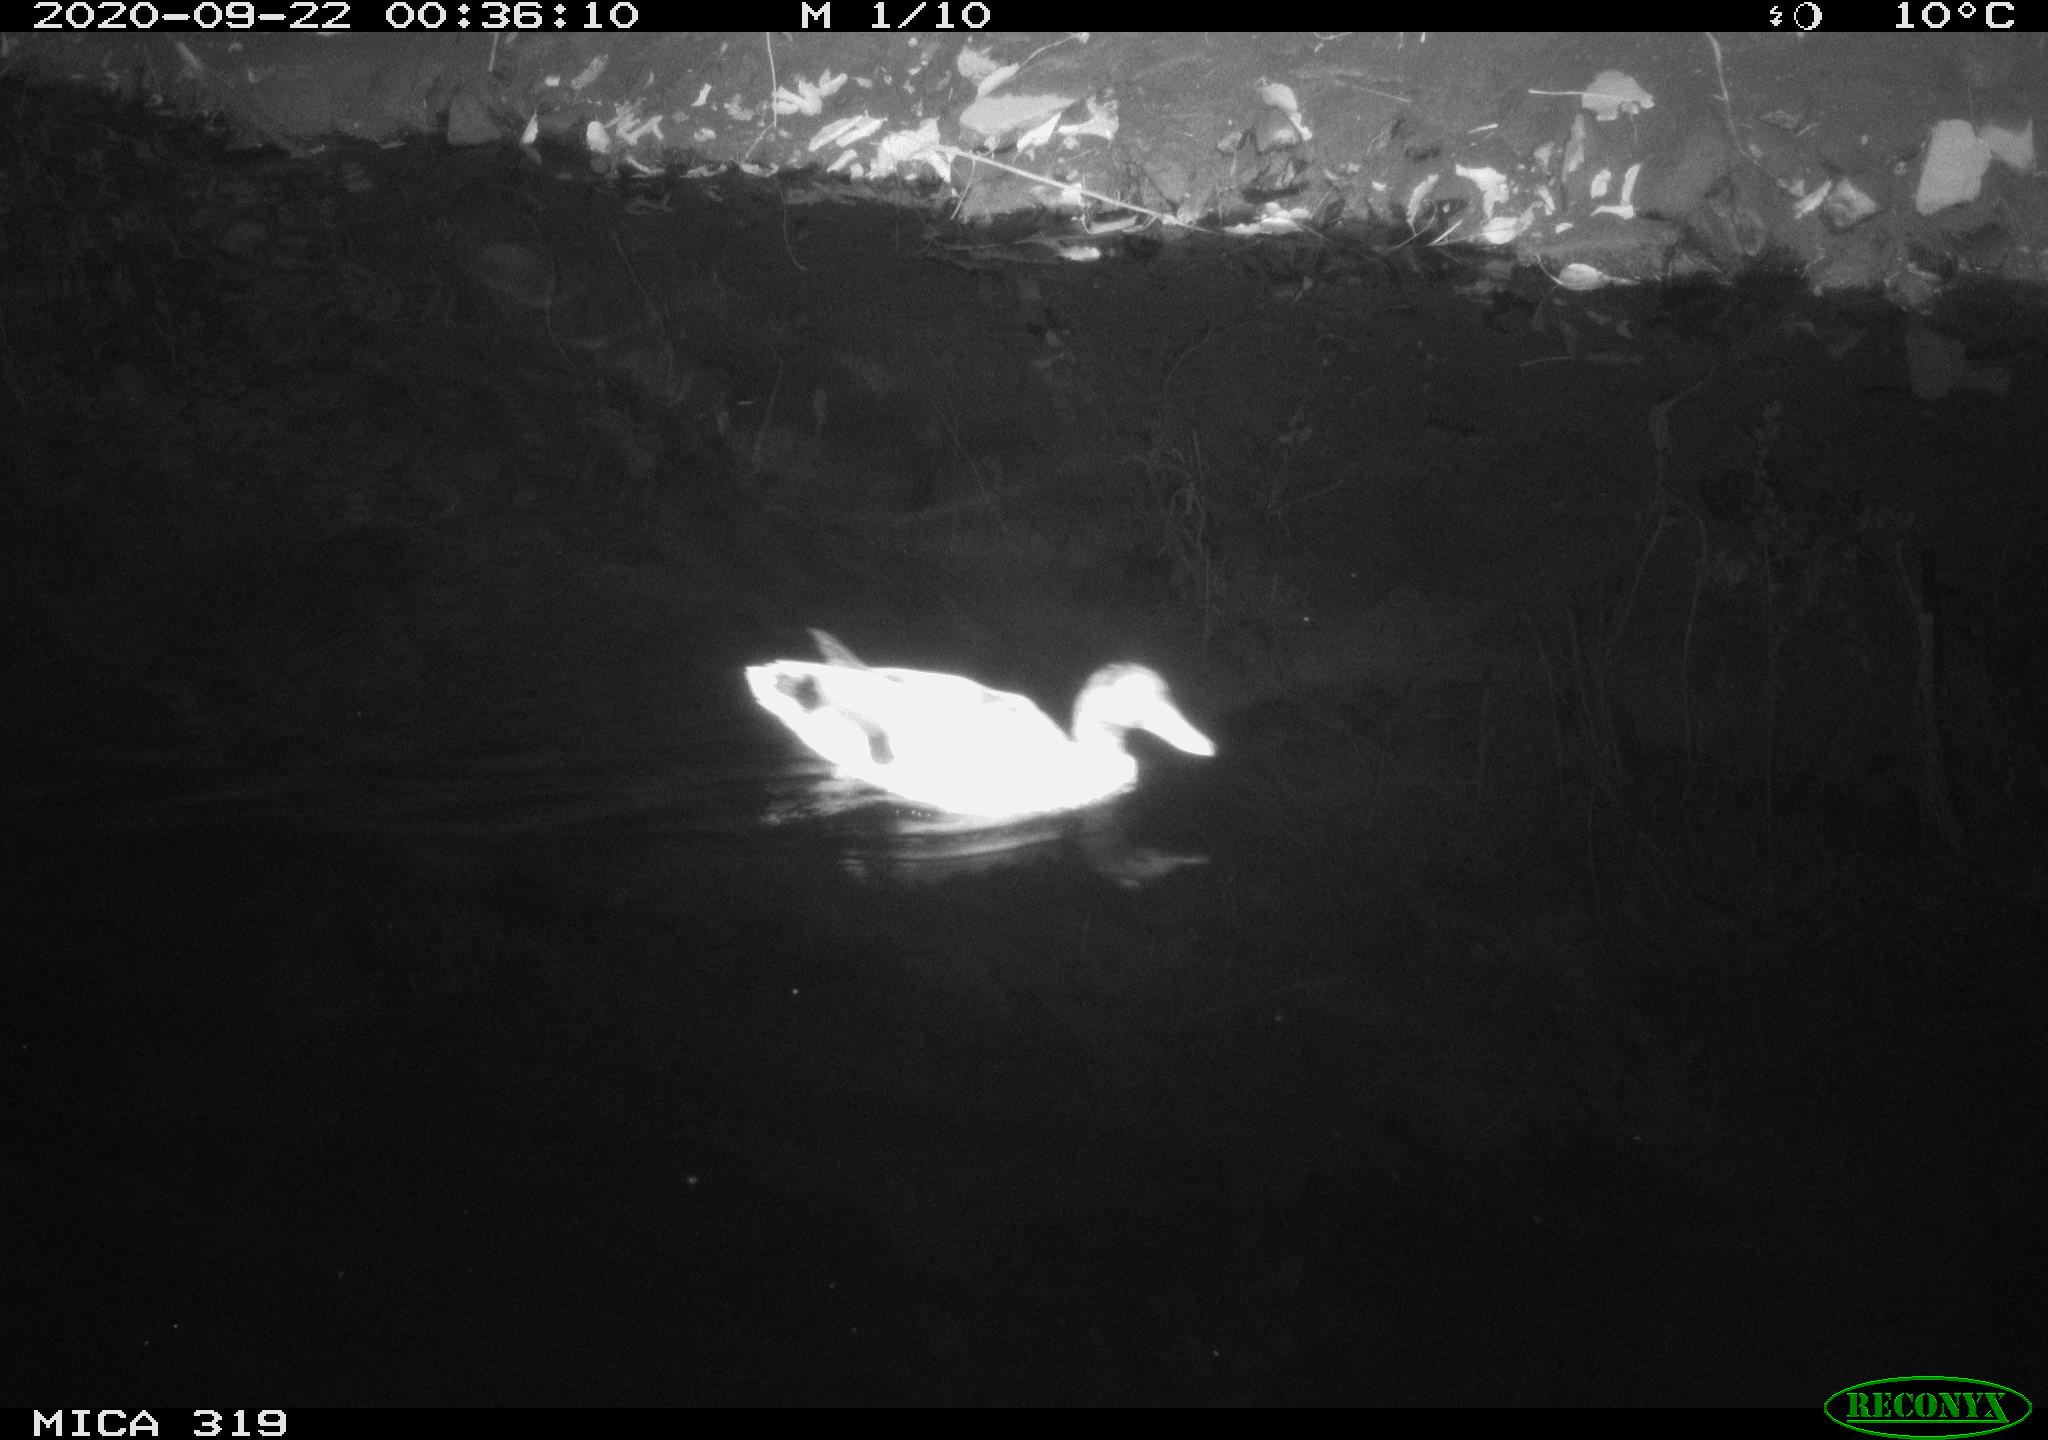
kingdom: Animalia
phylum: Chordata
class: Aves
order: Anseriformes
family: Anatidae
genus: Anas
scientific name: Anas platyrhynchos
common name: Mallard
